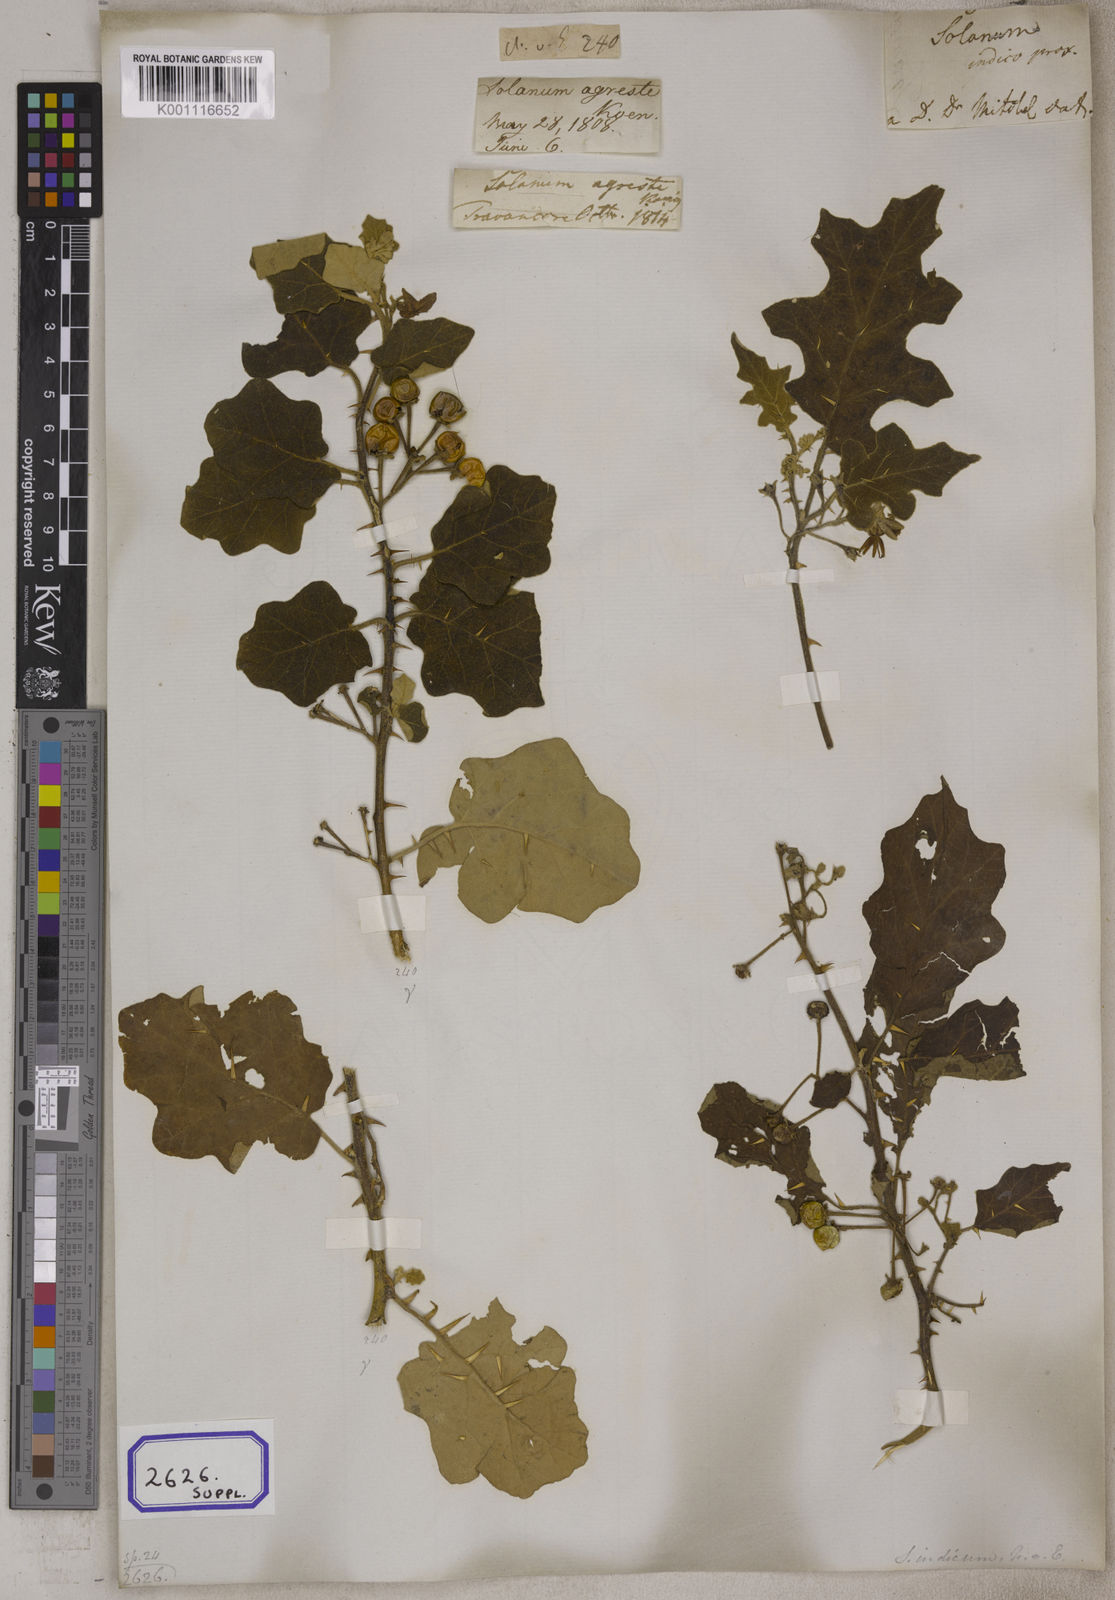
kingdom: Plantae
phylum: Tracheophyta
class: Magnoliopsida
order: Solanales
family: Solanaceae
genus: Solanum
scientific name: Solanum violaceum
